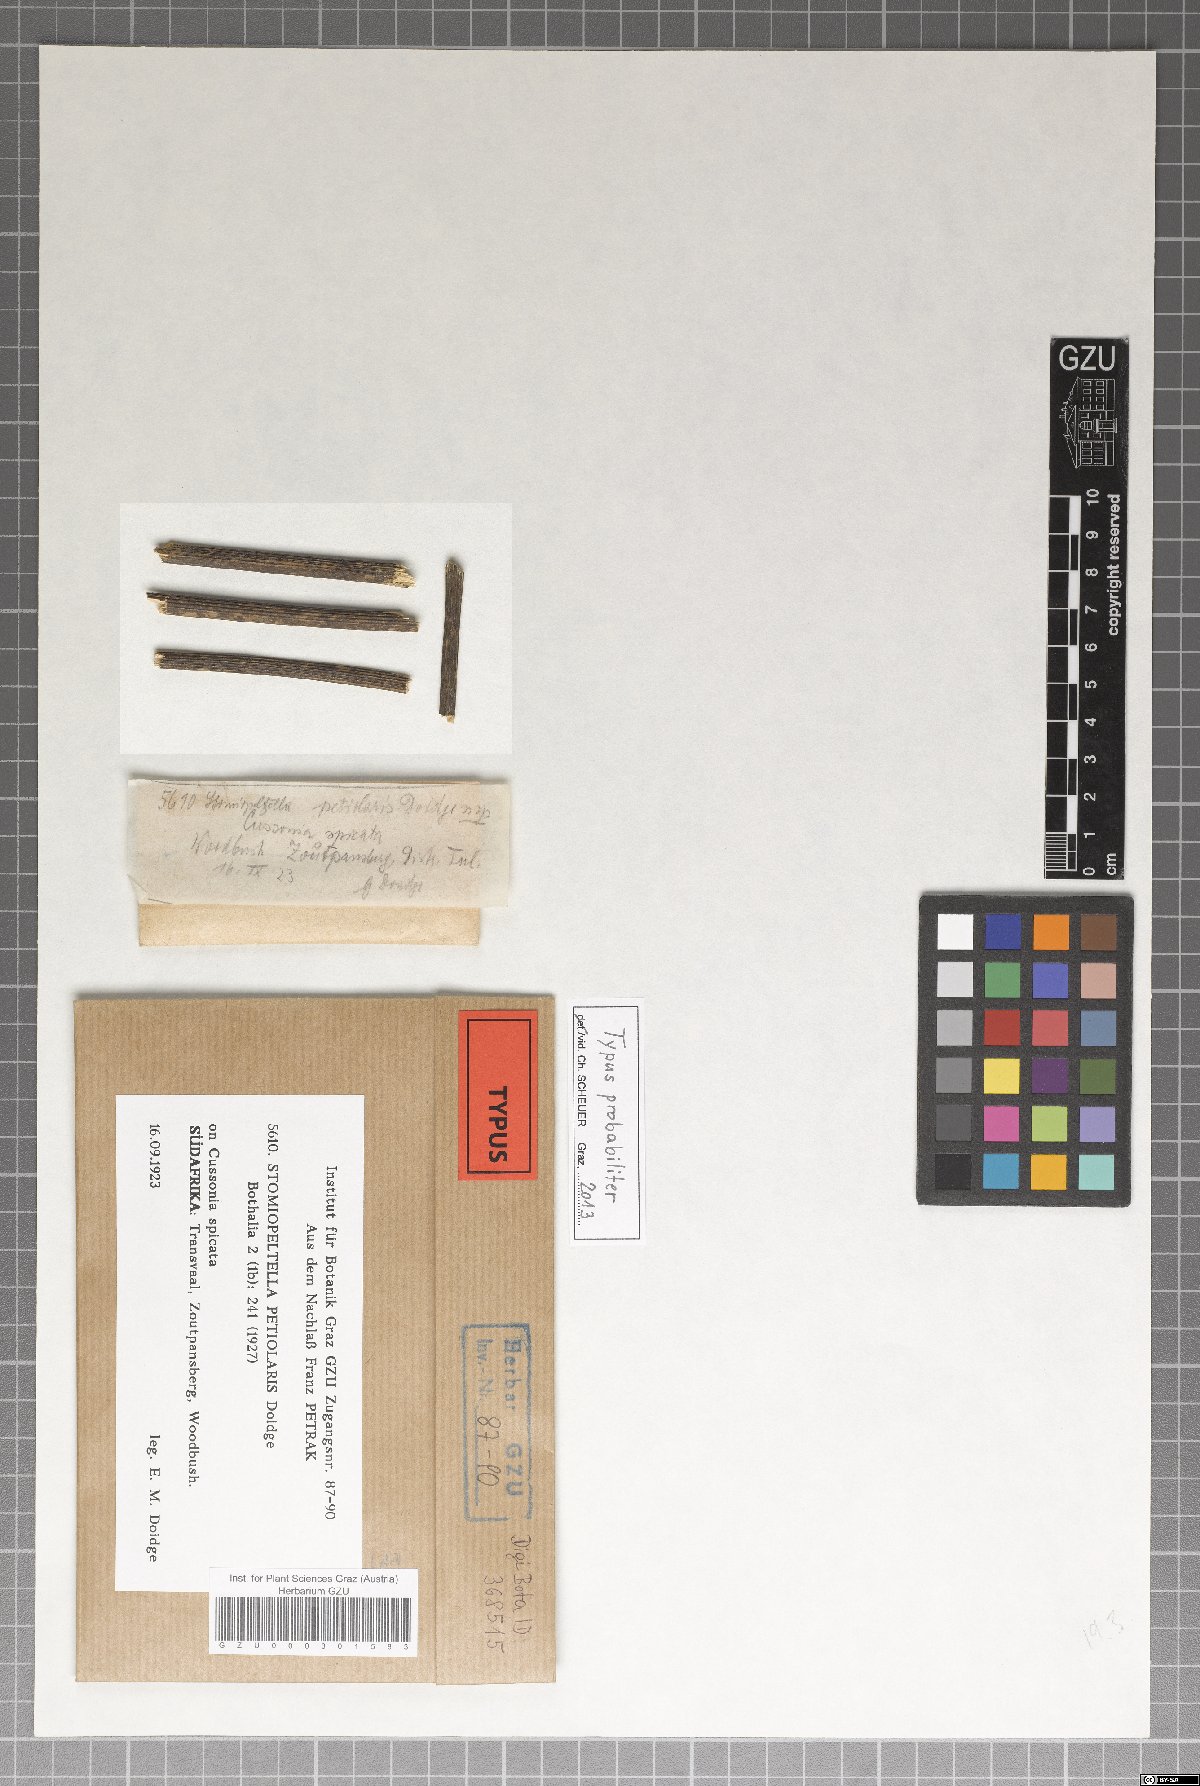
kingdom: Fungi
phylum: Ascomycota
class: Dothideomycetes
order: Microthyriales
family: Micropeltidaceae
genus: Stomiopeltella
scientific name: Stomiopeltella petiolaris
